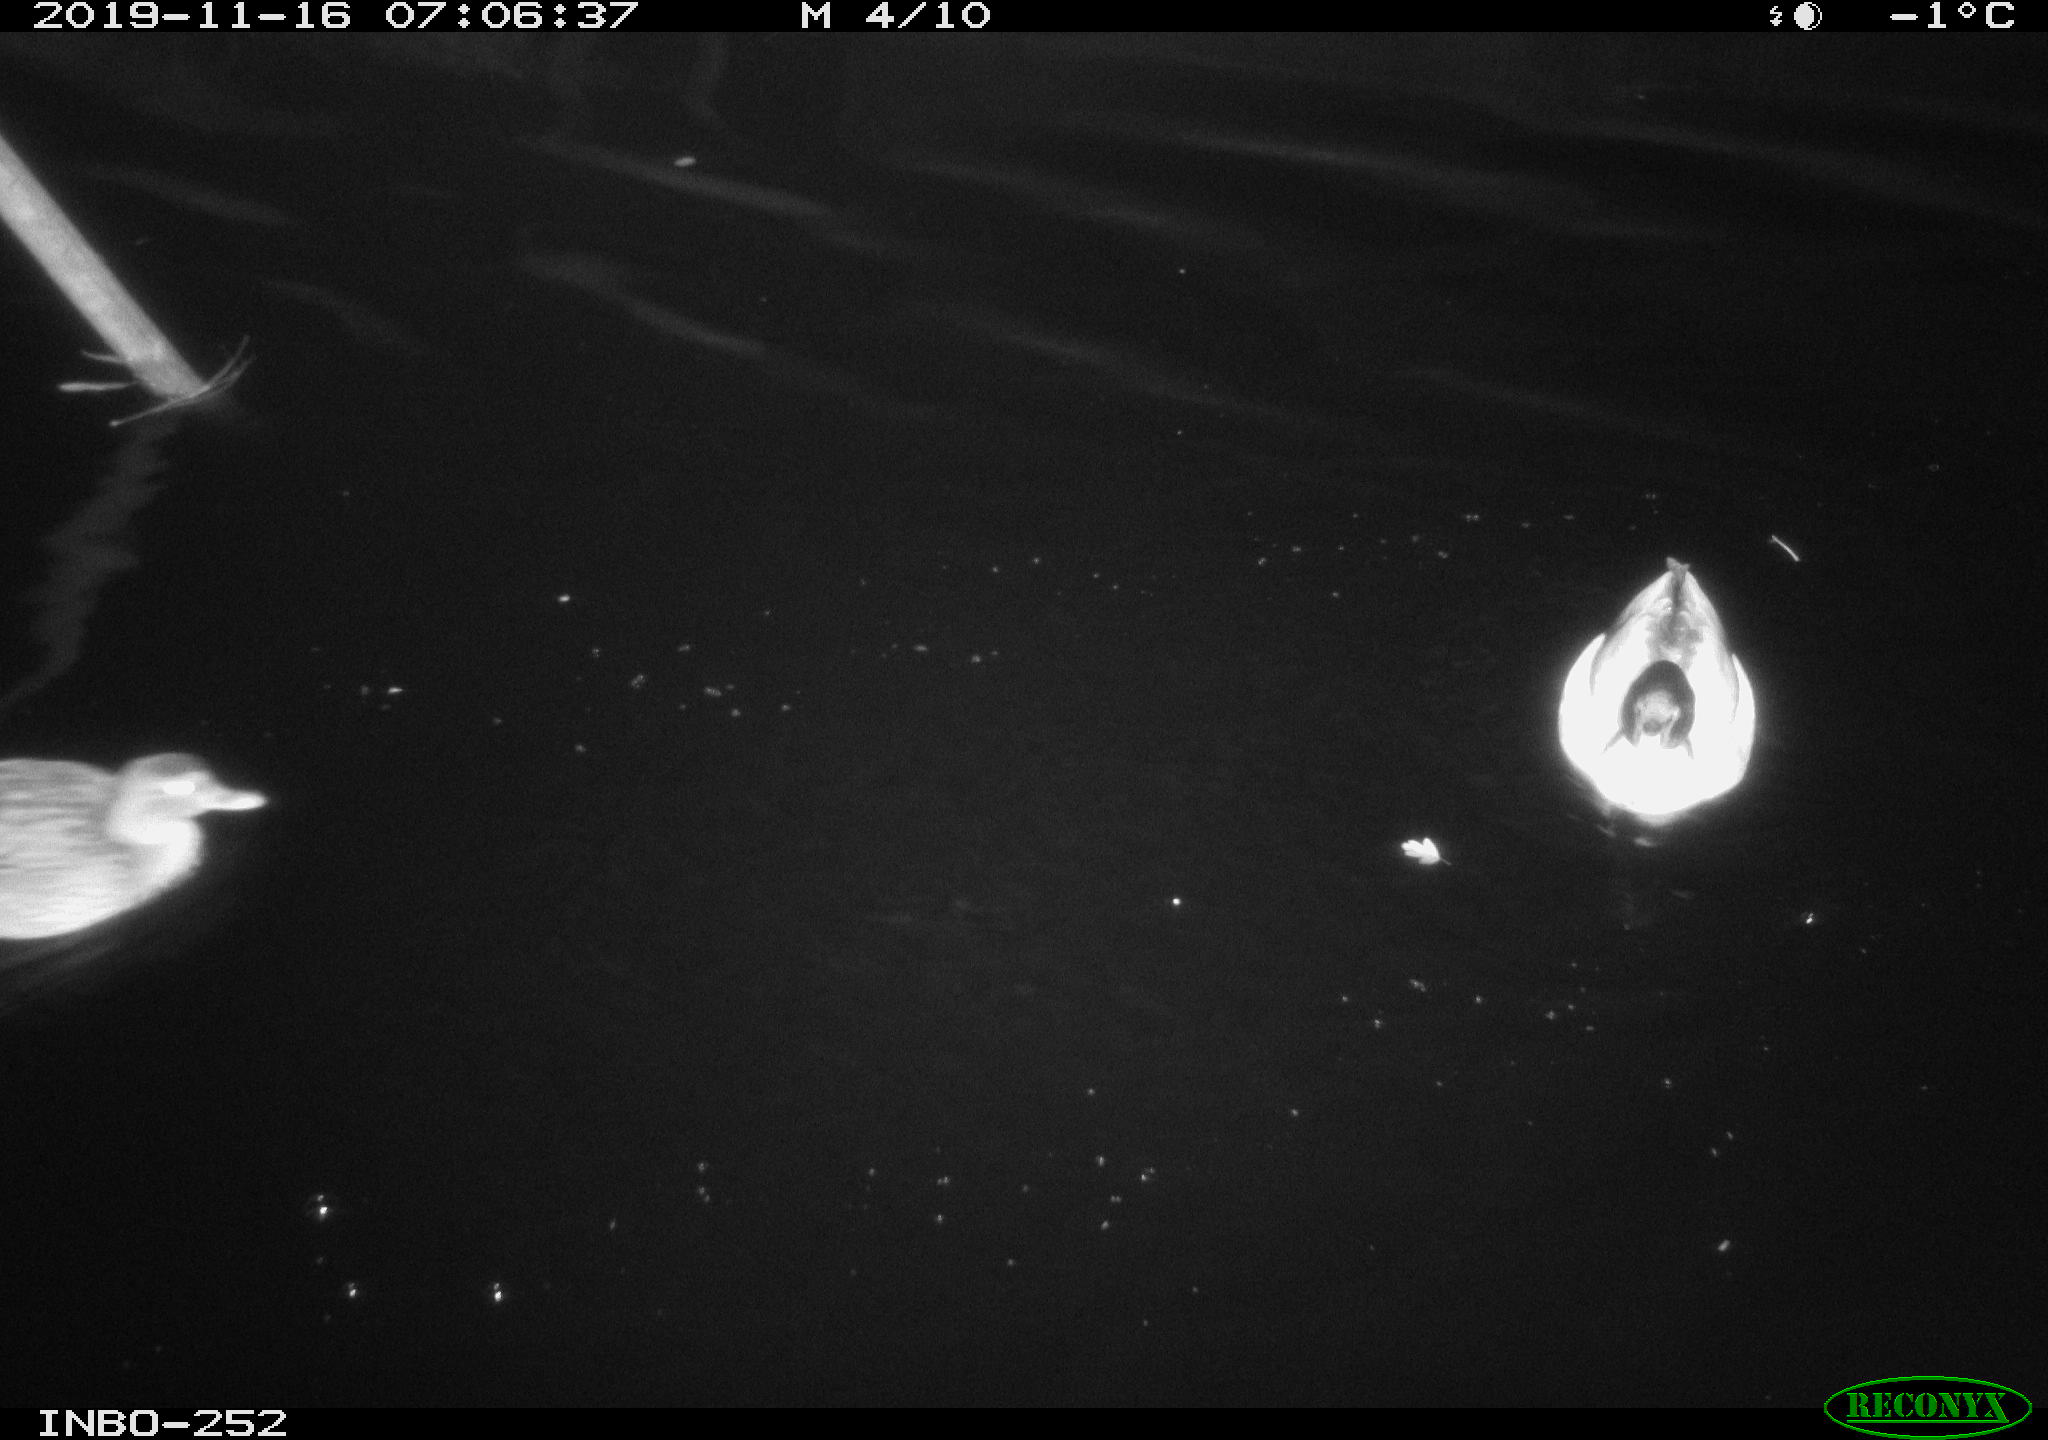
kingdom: Animalia
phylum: Chordata
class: Aves
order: Anseriformes
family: Anatidae
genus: Anas
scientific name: Anas platyrhynchos
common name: Mallard
